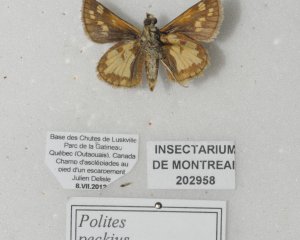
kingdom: Animalia
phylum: Arthropoda
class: Insecta
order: Lepidoptera
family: Hesperiidae
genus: Polites
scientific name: Polites coras
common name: Peck's Skipper
